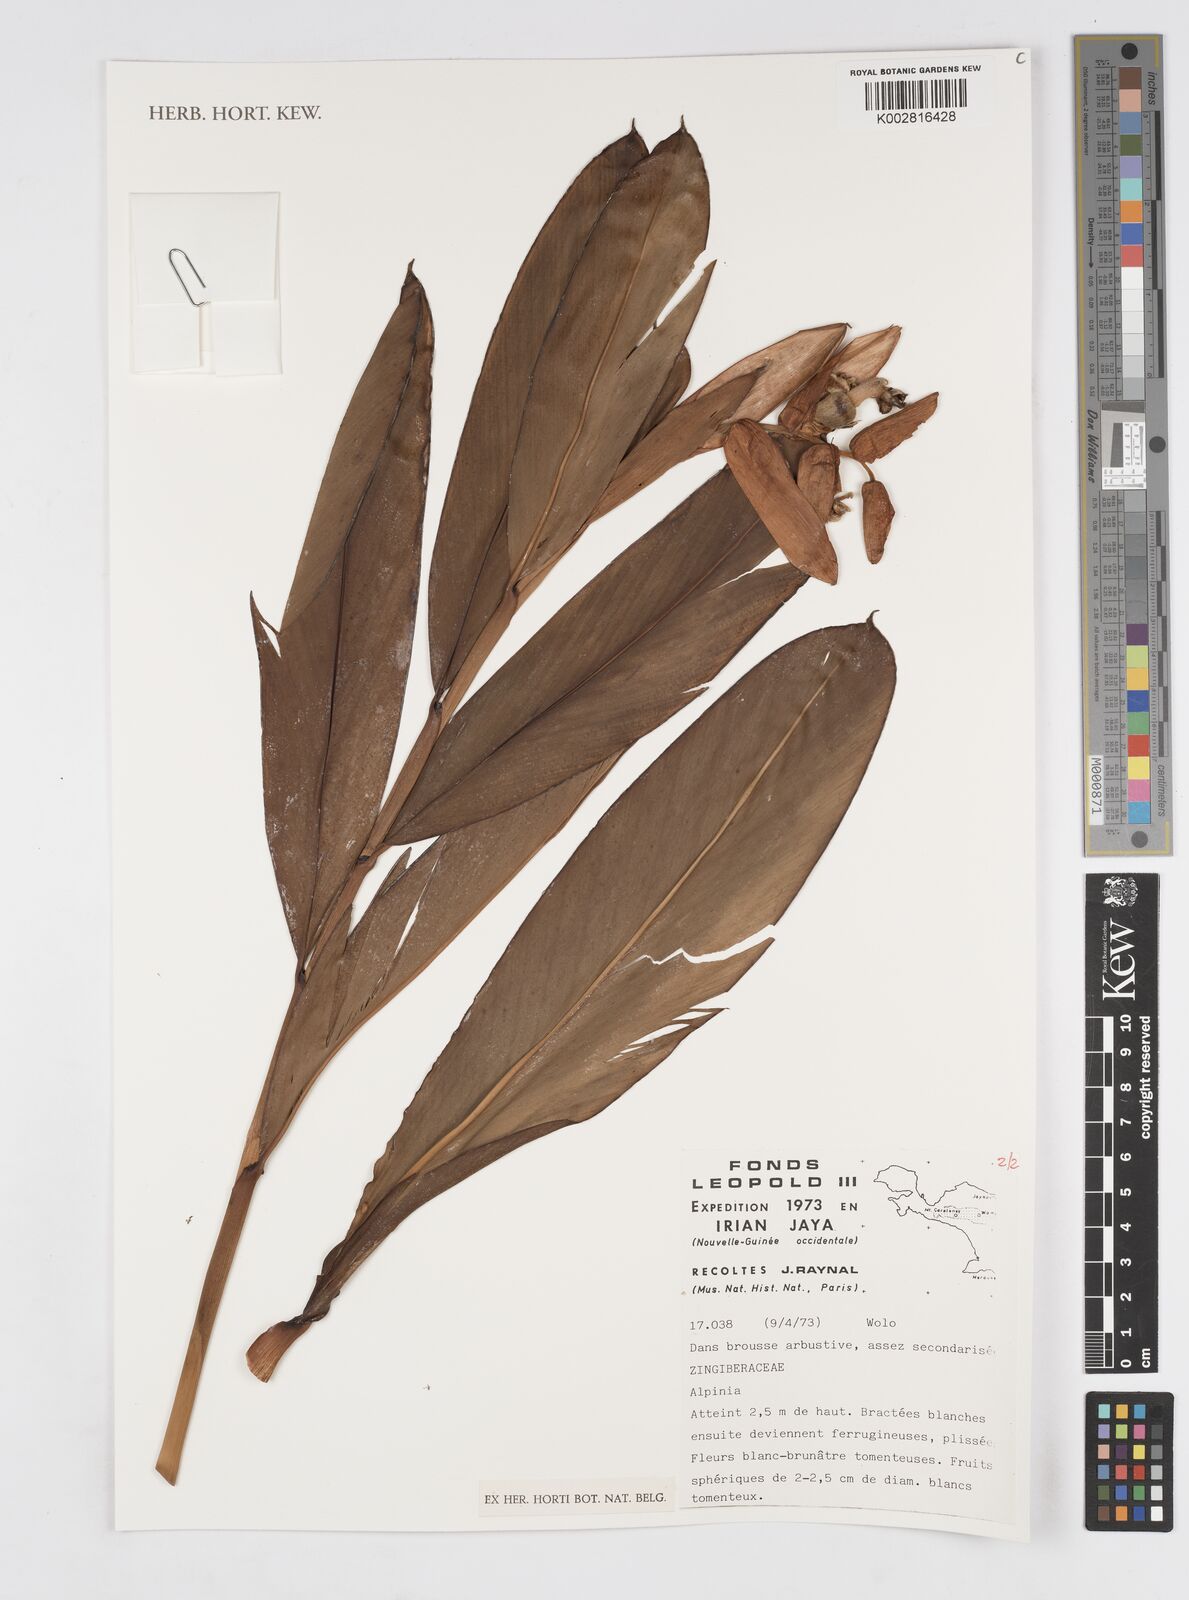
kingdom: Plantae
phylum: Tracheophyta
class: Liliopsida
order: Zingiberales
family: Zingiberaceae
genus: Alpinia
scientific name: Alpinia
